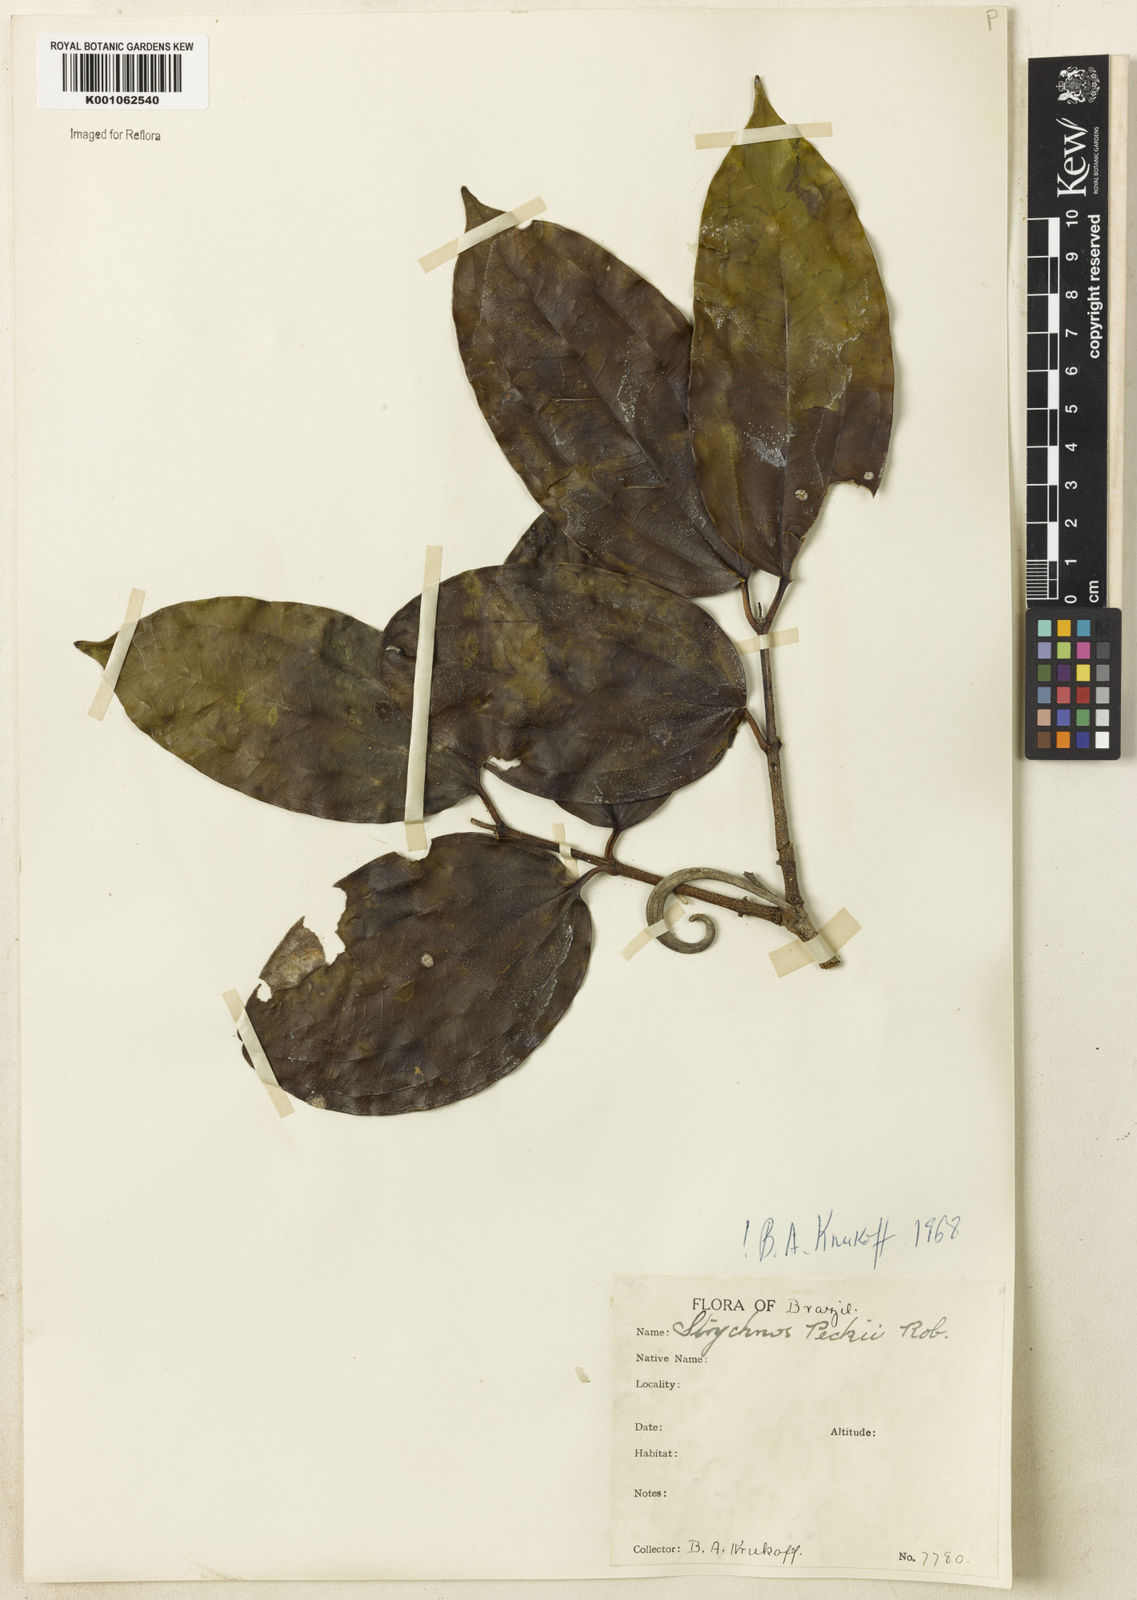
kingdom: Plantae
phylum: Tracheophyta
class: Magnoliopsida
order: Gentianales
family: Loganiaceae
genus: Strychnos
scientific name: Strychnos peckii
